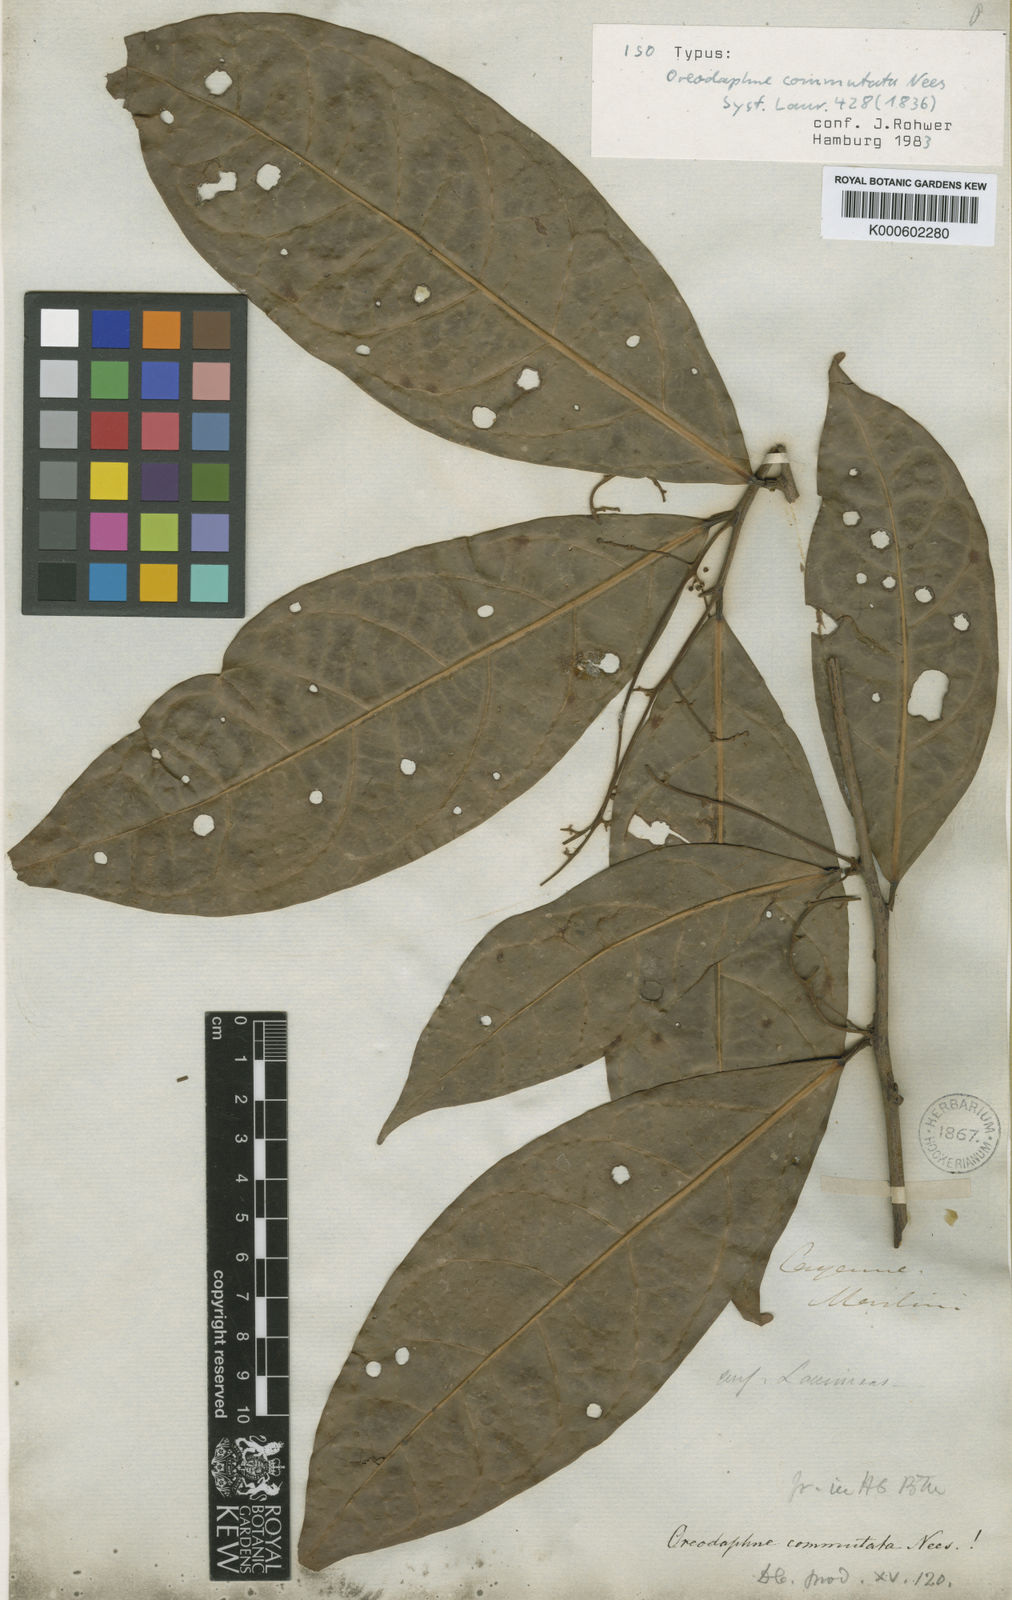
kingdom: Plantae
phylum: Tracheophyta
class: Magnoliopsida
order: Laurales
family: Lauraceae
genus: Ocotea
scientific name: Ocotea commutata
